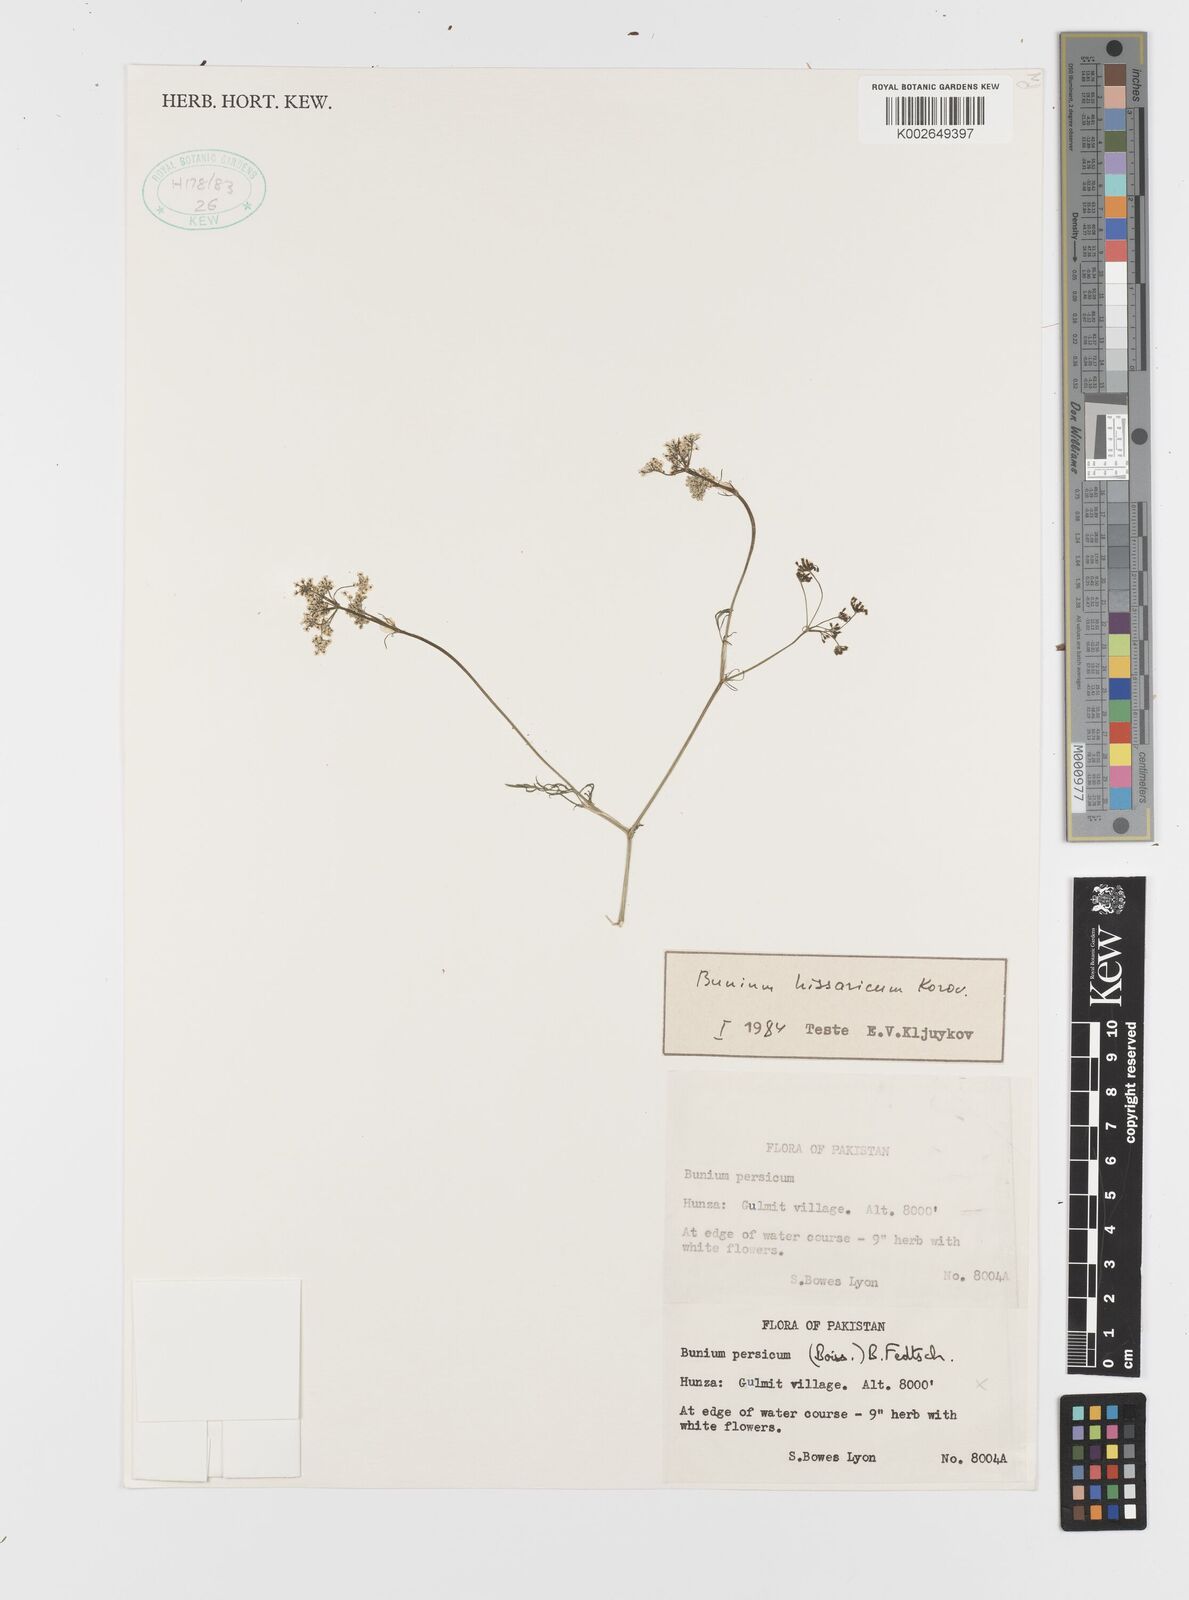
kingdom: Plantae
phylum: Tracheophyta
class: Magnoliopsida
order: Apiales
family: Apiaceae
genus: Elwendia
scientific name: Elwendia hissarica
